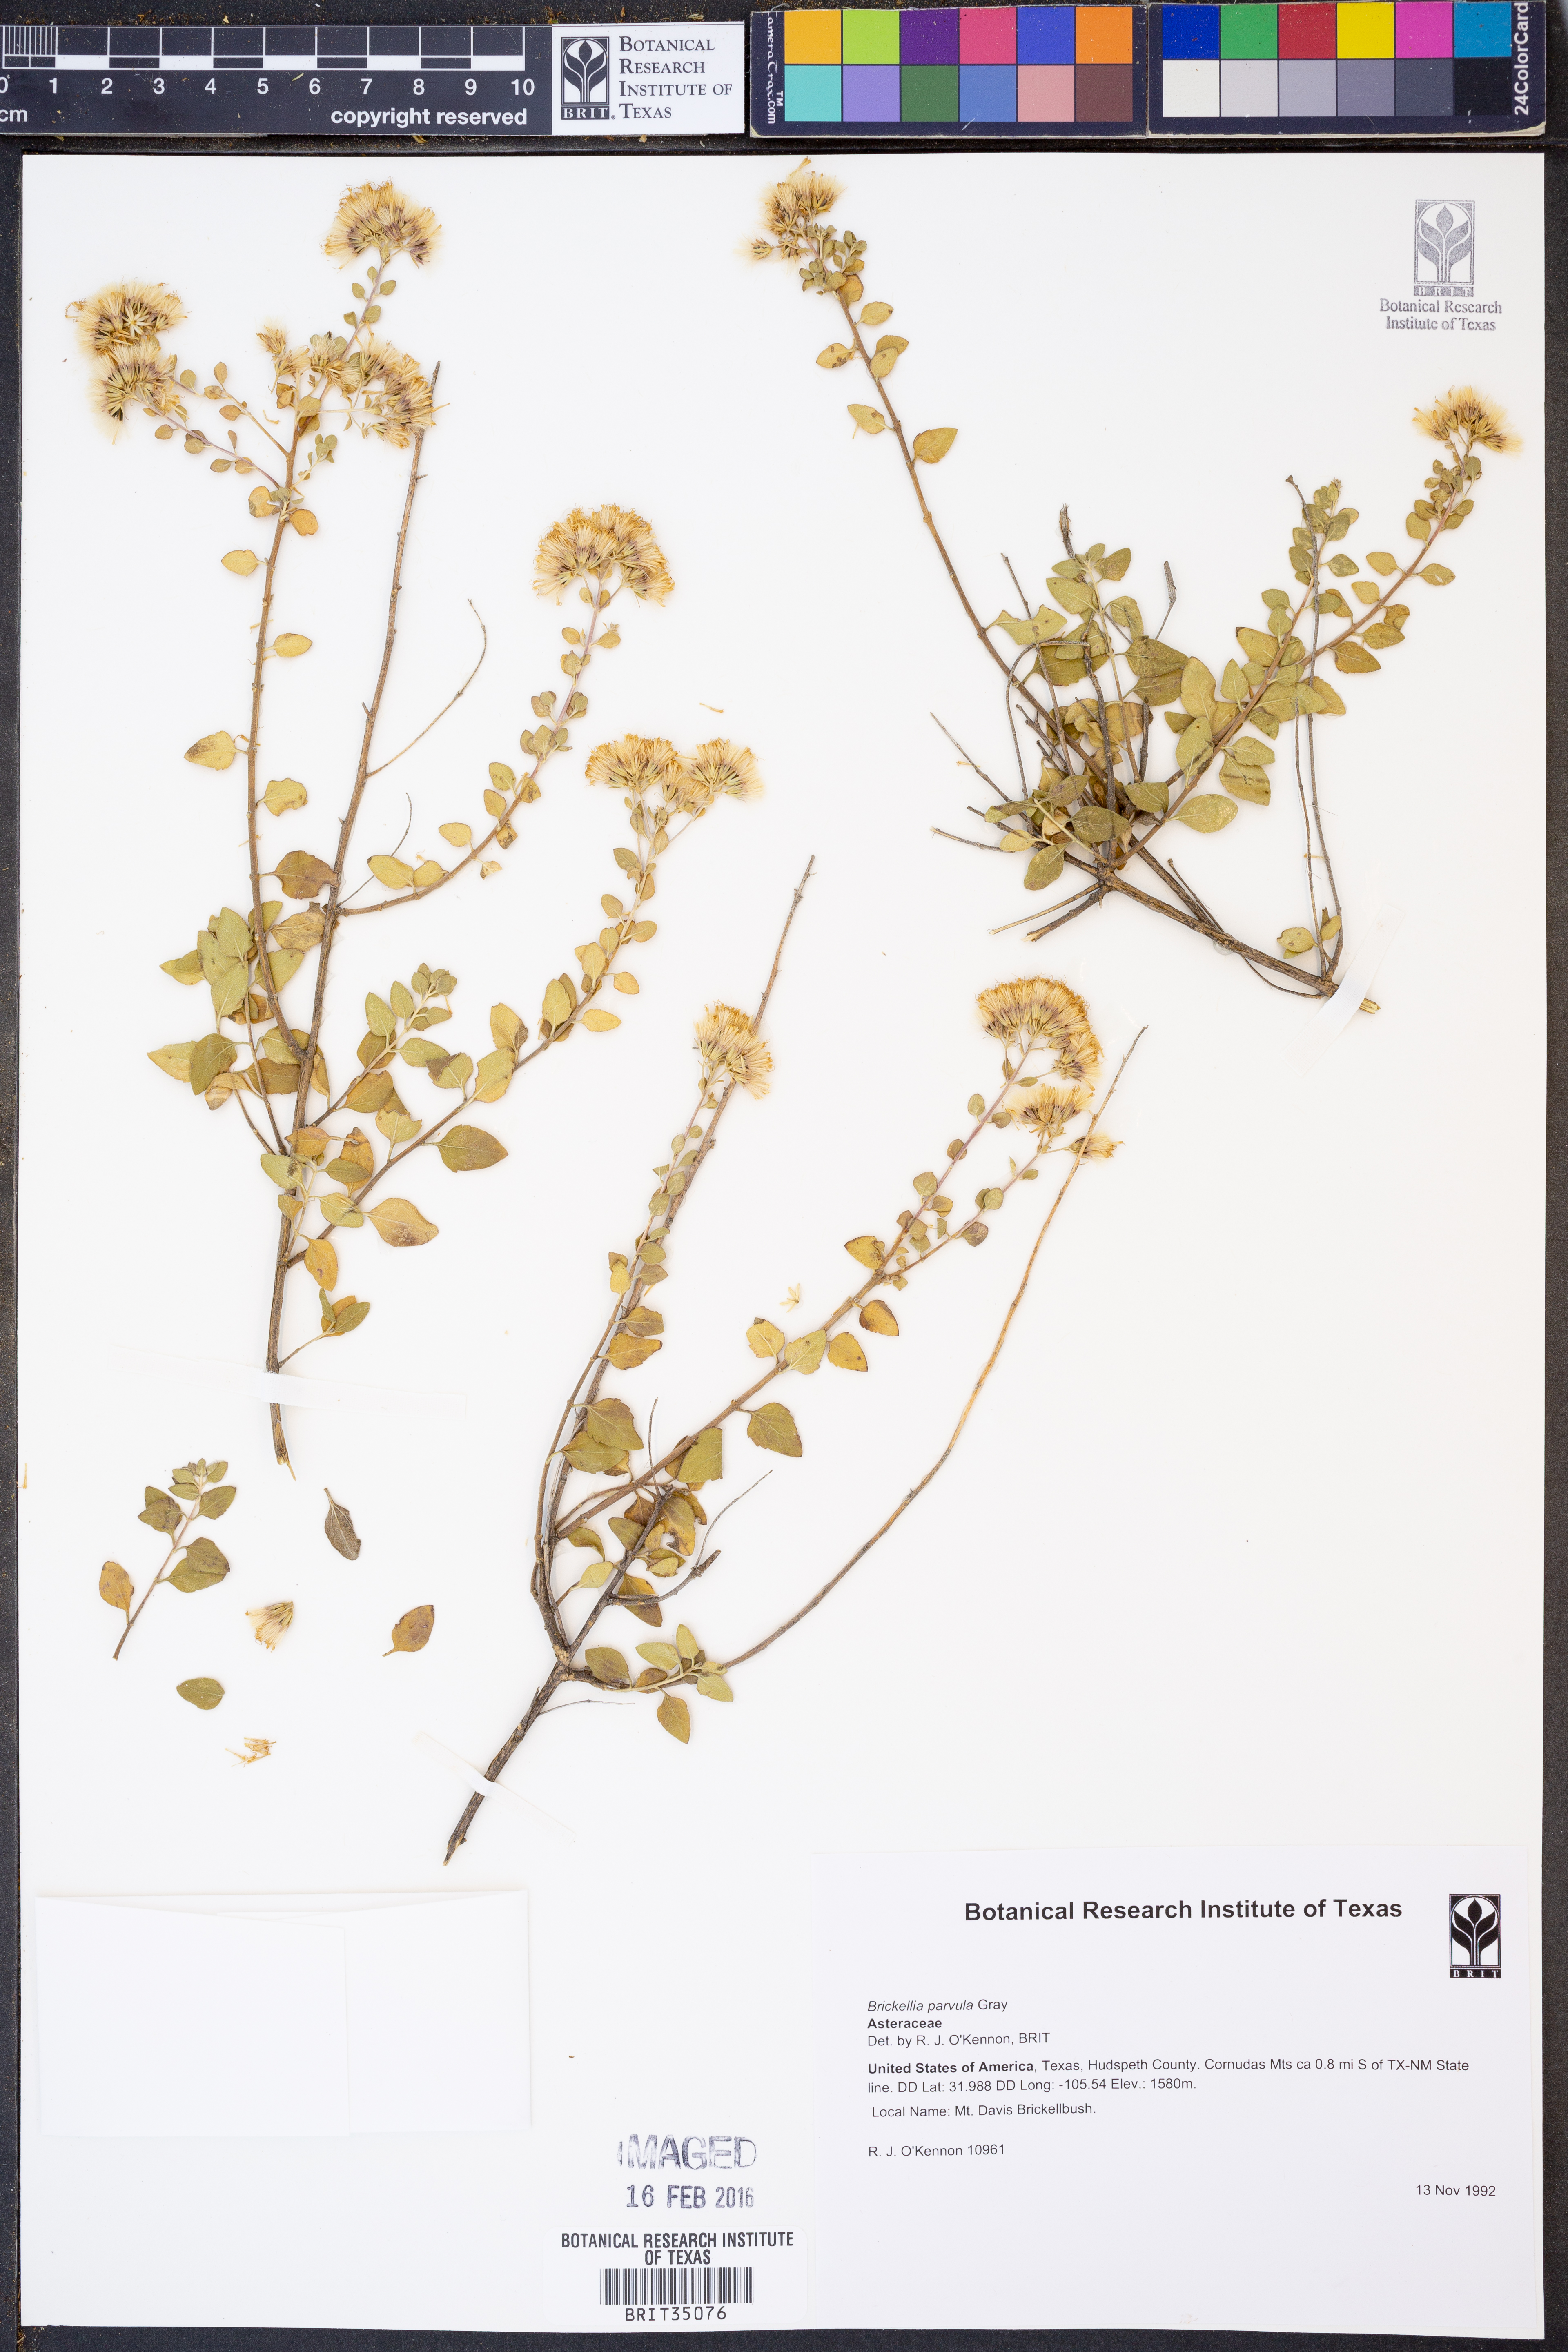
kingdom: Plantae
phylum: Tracheophyta
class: Magnoliopsida
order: Asterales
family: Asteraceae
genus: Brickellia
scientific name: Brickellia parvula
